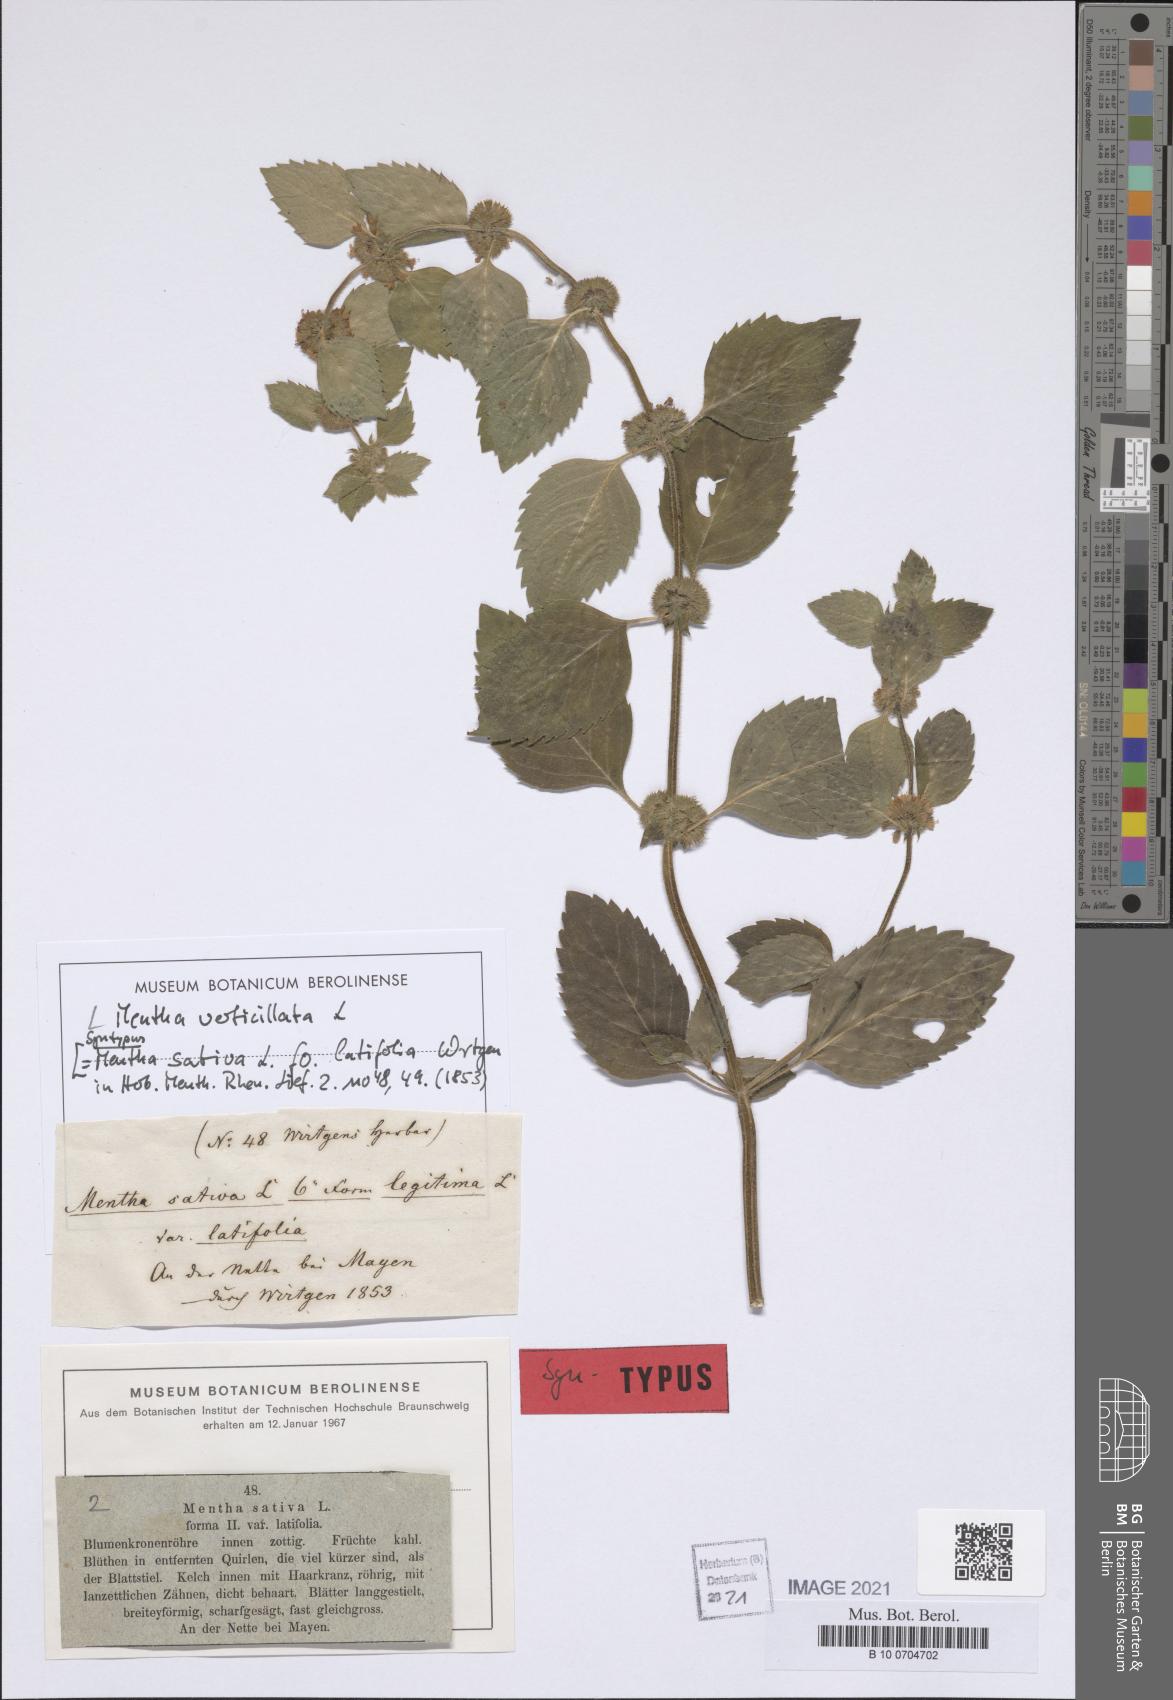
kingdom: Plantae
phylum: Tracheophyta
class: Magnoliopsida
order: Lamiales
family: Lamiaceae
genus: Mentha
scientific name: Mentha verticillata
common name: Mint
